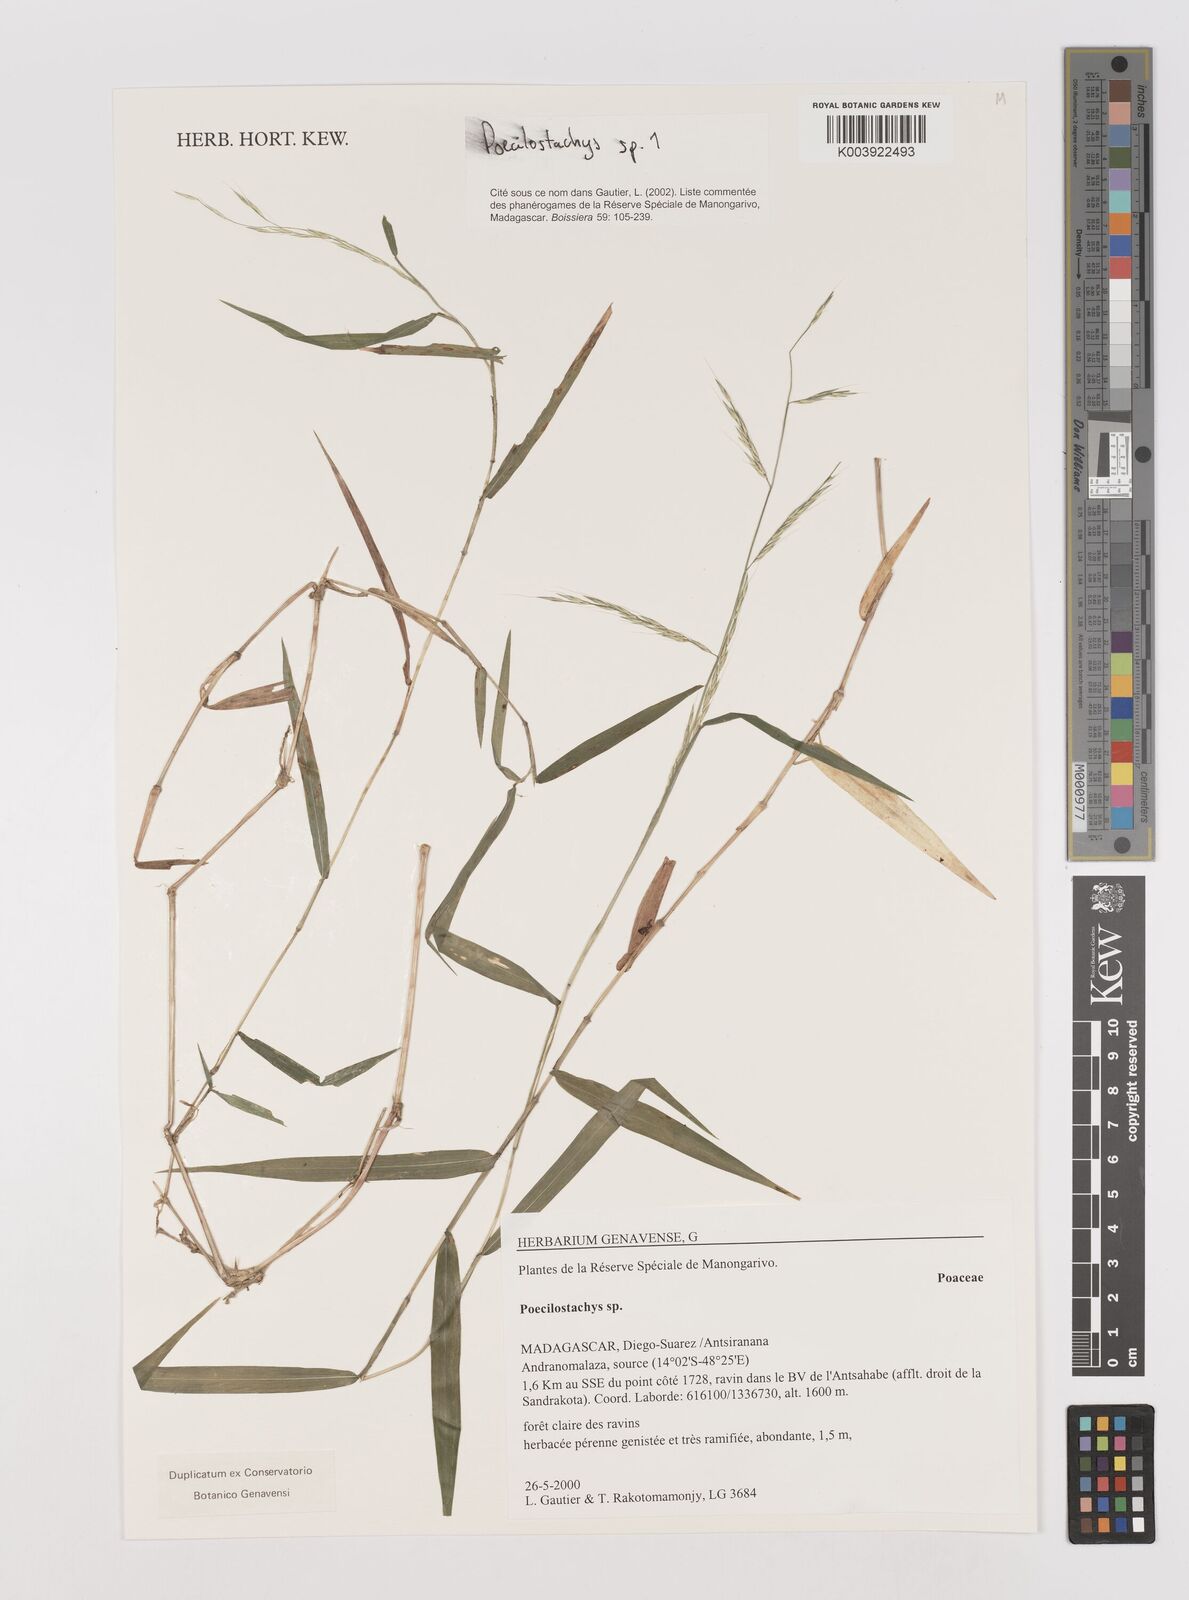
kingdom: Plantae
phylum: Tracheophyta
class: Liliopsida
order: Poales
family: Poaceae
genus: Poecilostachys
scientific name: Poecilostachys
